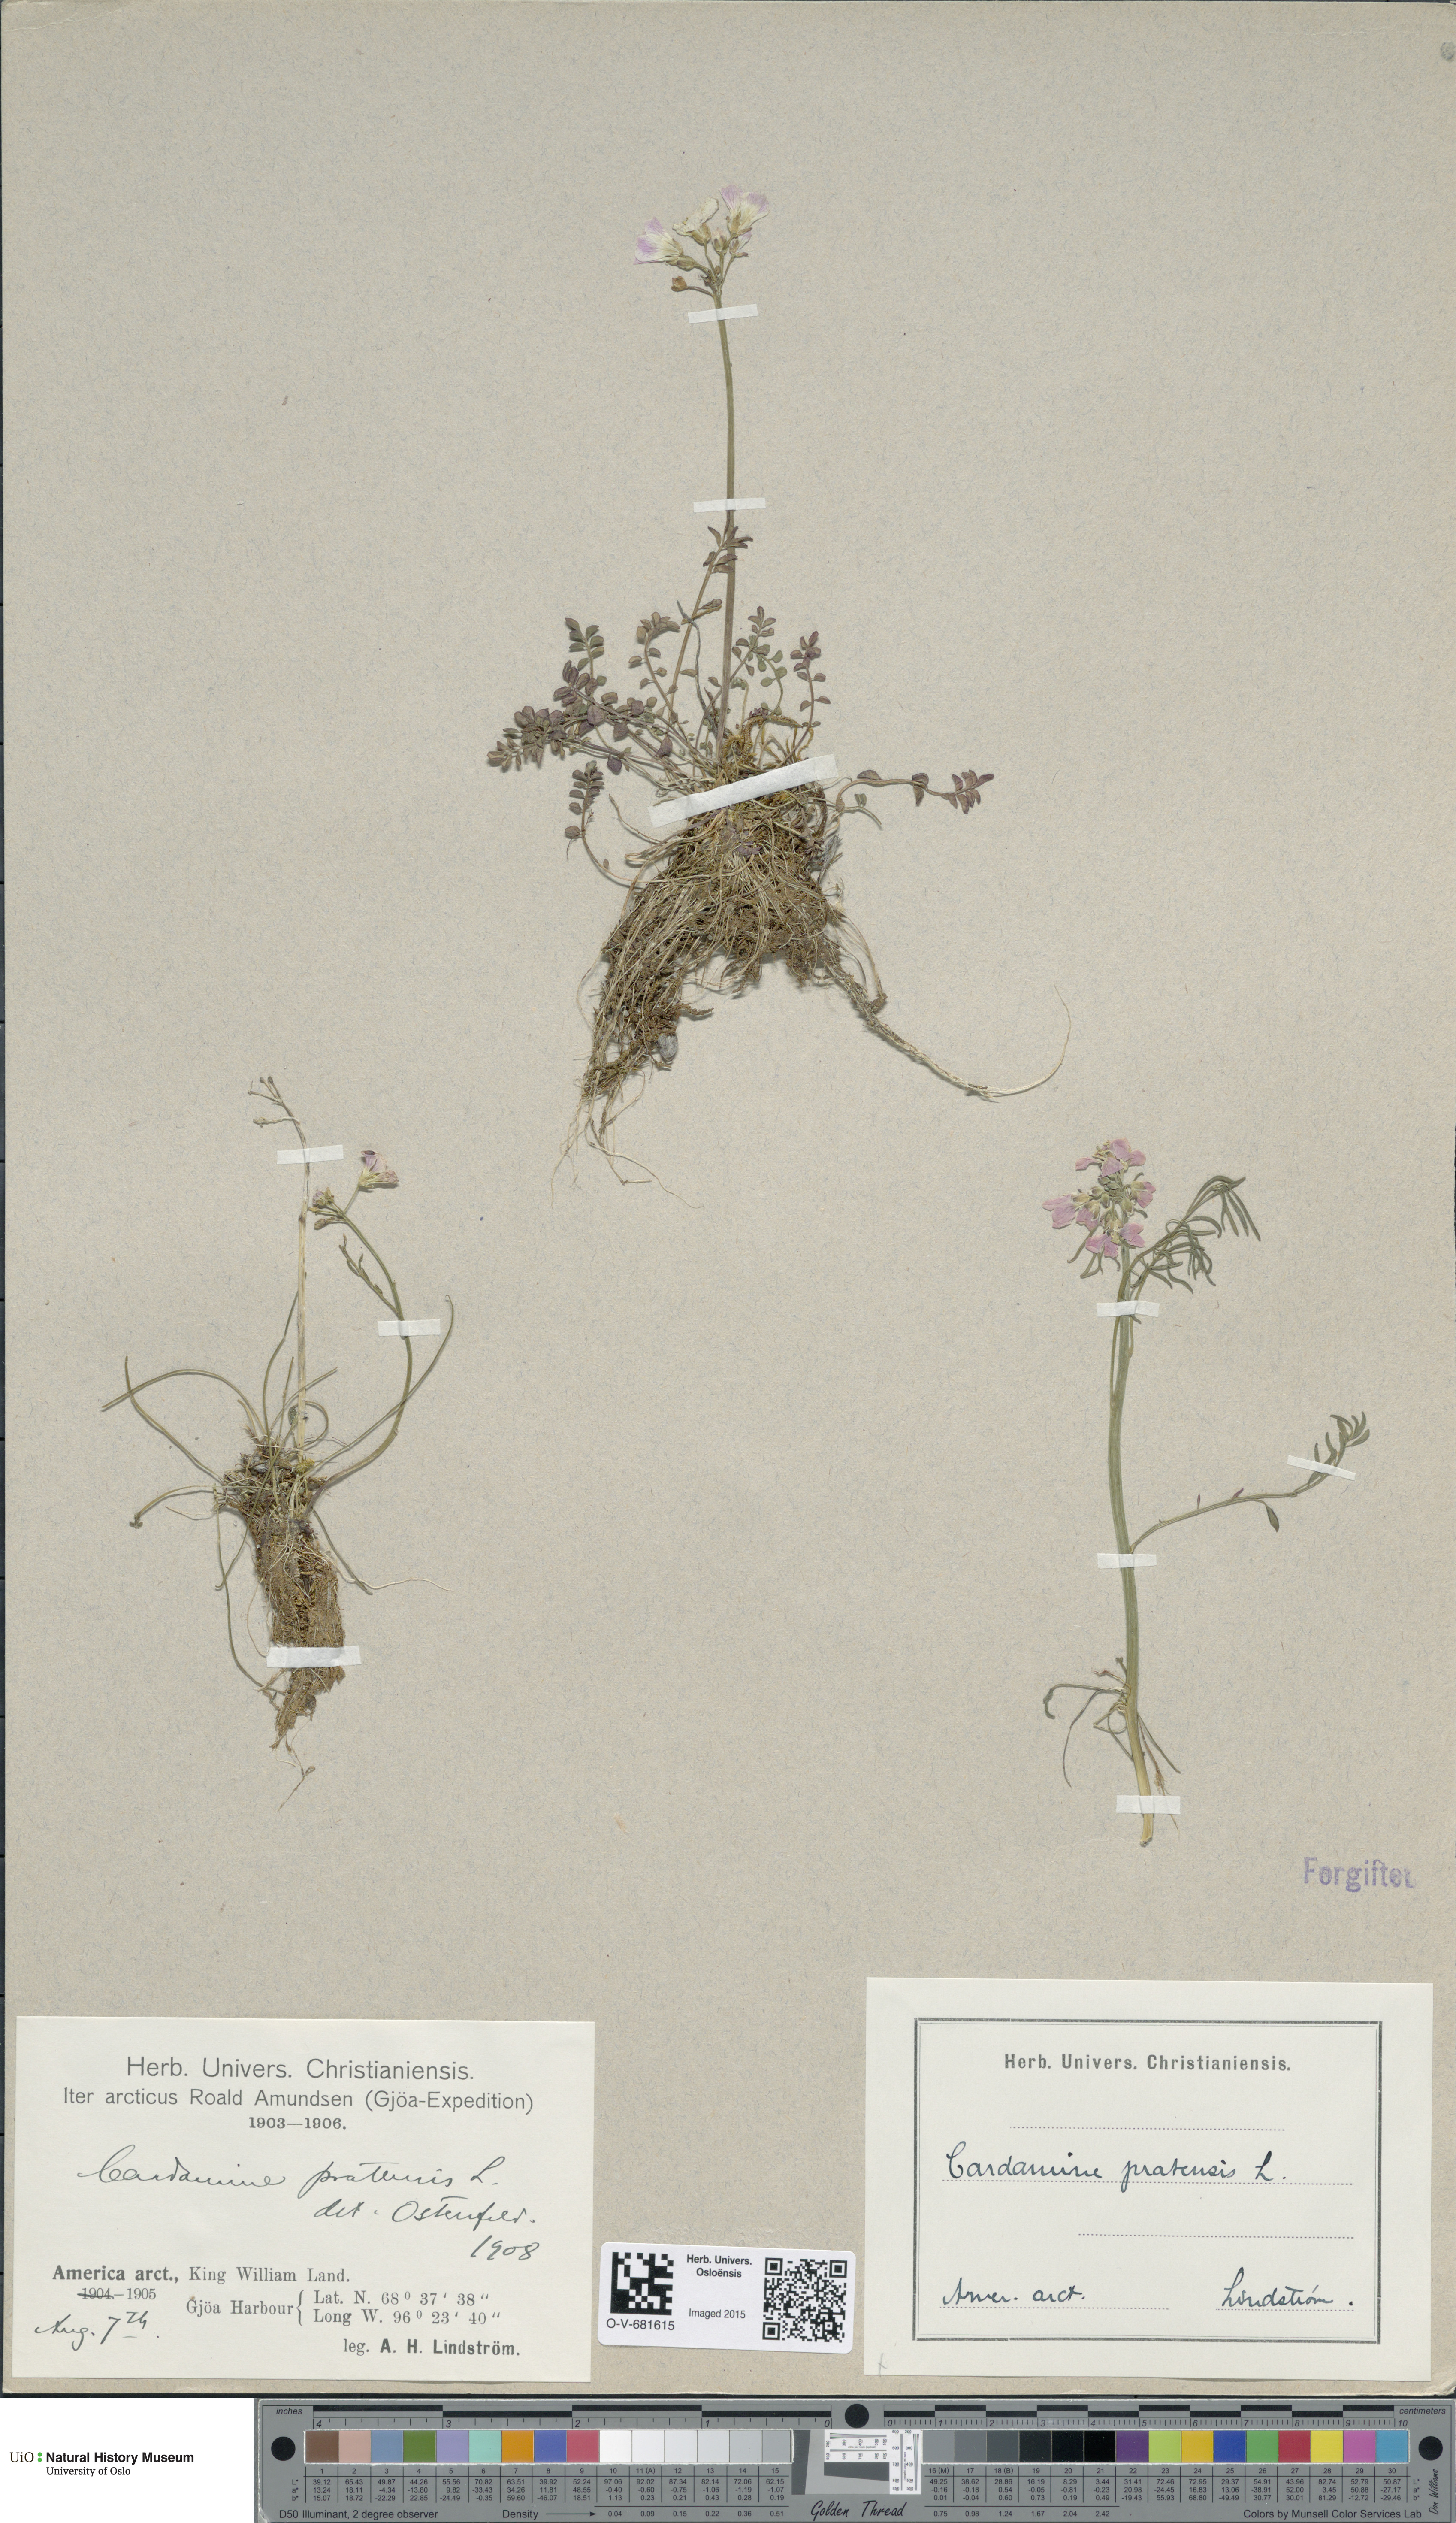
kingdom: Plantae
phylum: Tracheophyta
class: Magnoliopsida
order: Brassicales
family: Brassicaceae
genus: Cardamine
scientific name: Cardamine pratensis
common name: Cuckoo flower
